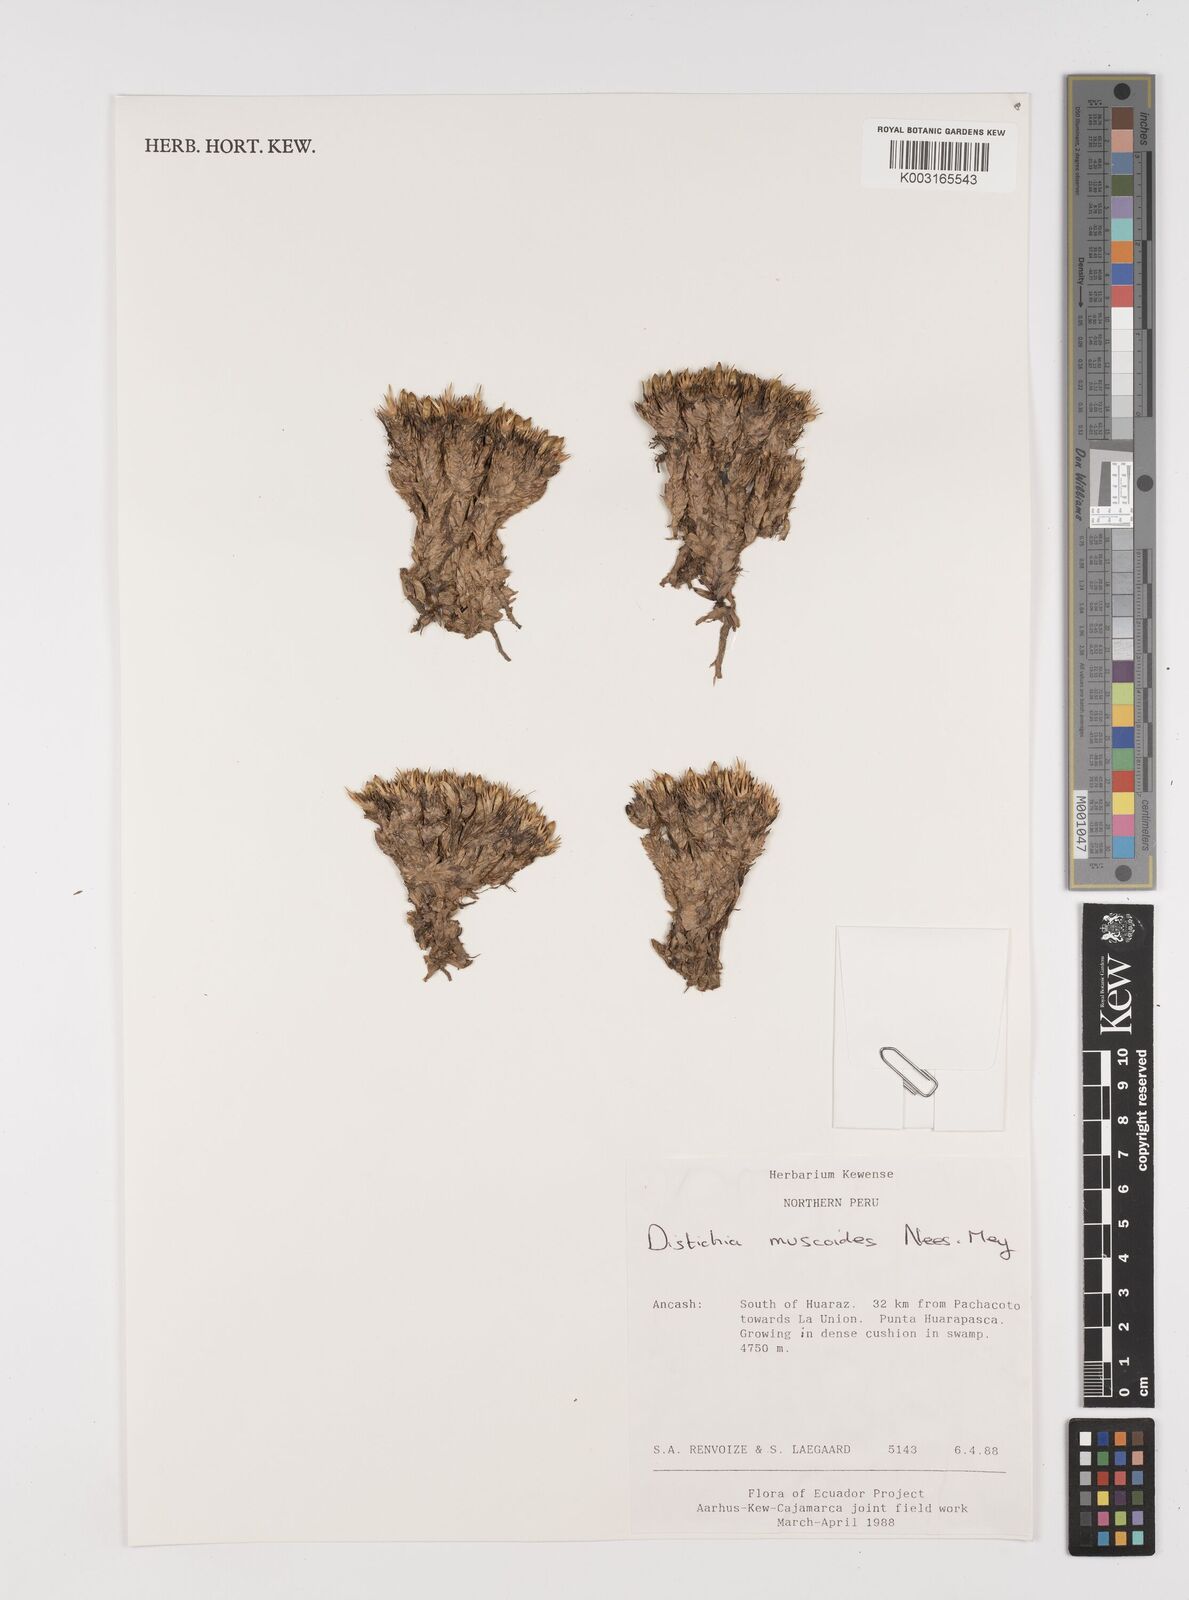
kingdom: Plantae
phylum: Tracheophyta
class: Liliopsida
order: Poales
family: Juncaceae
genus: Distichia
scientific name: Distichia muscoides
